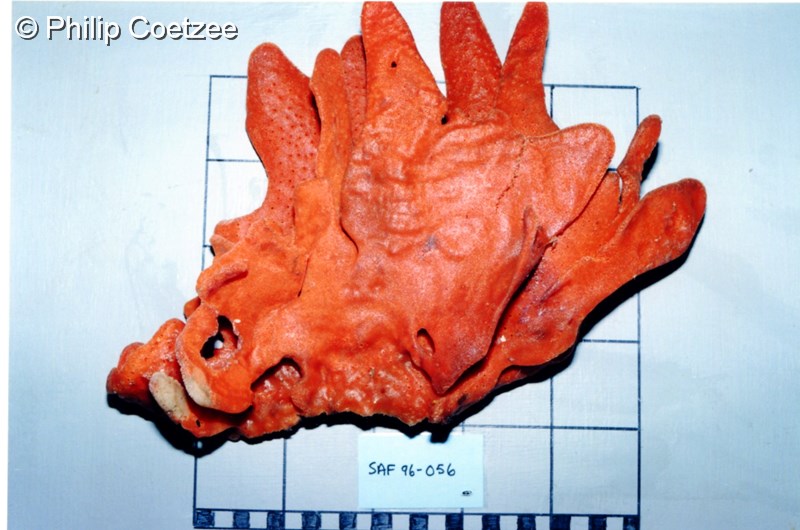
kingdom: Animalia
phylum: Porifera
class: Demospongiae
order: Poecilosclerida
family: Isodictyidae
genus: Isodictya
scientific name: Isodictya grandis
